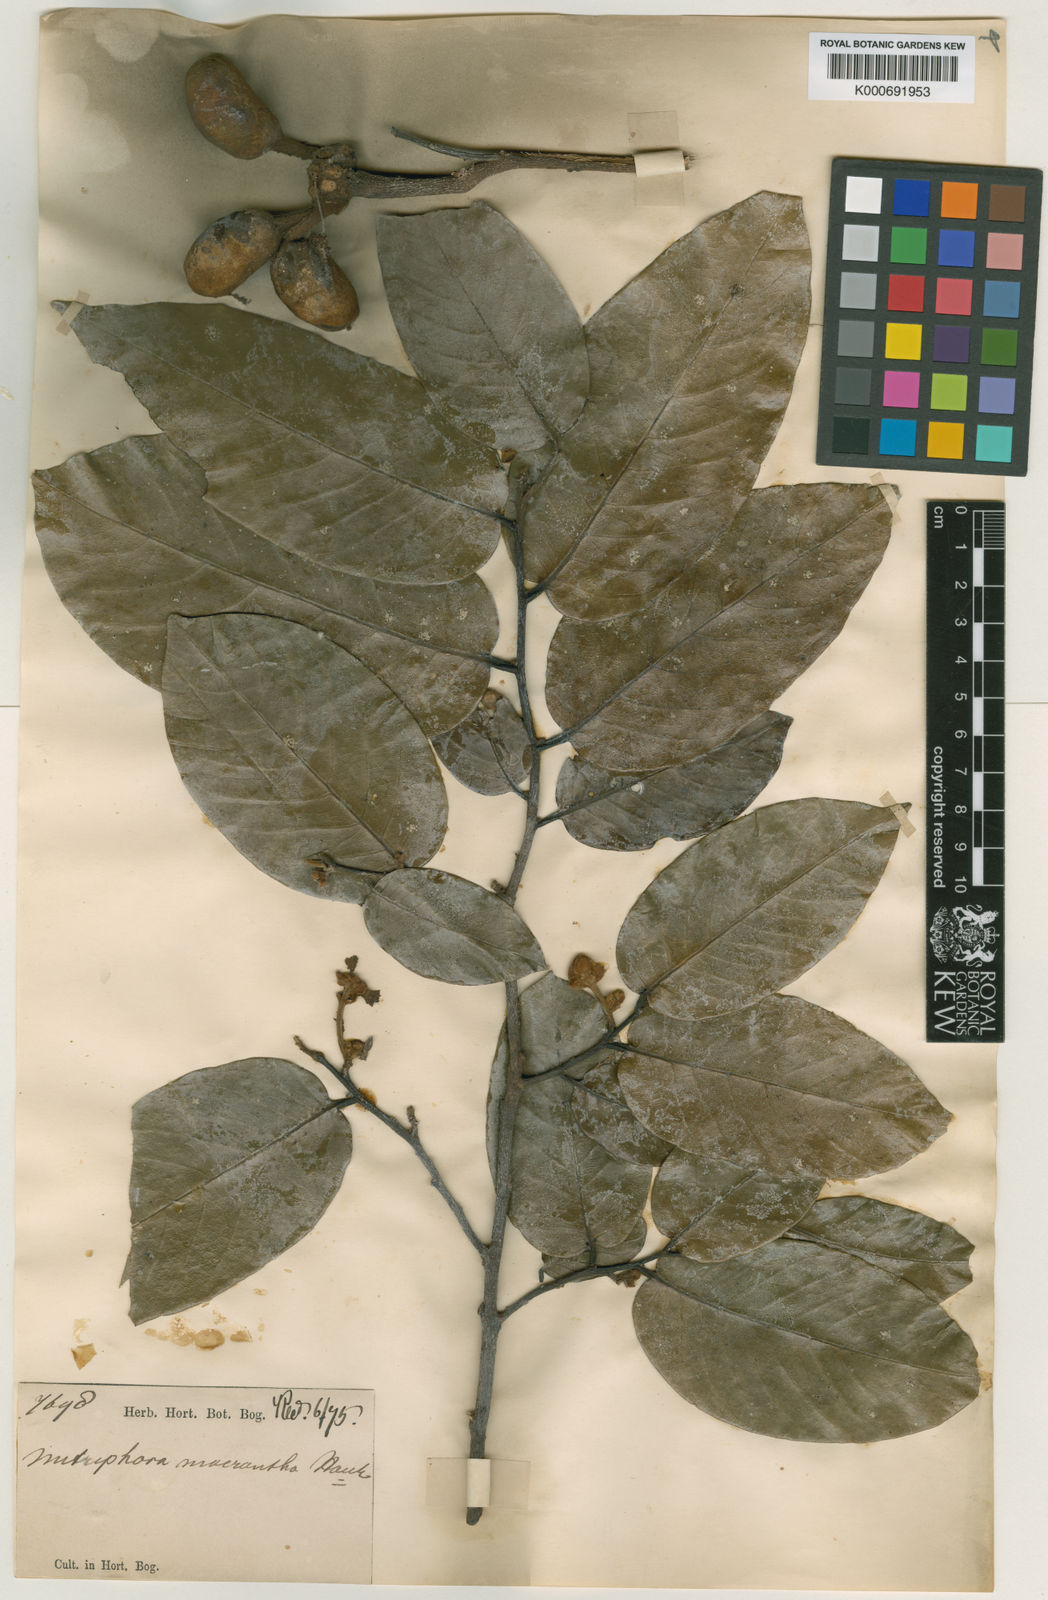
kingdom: Plantae
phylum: Tracheophyta
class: Magnoliopsida
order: Magnoliales
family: Annonaceae
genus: Mitrephora
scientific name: Mitrephora polypyrena
